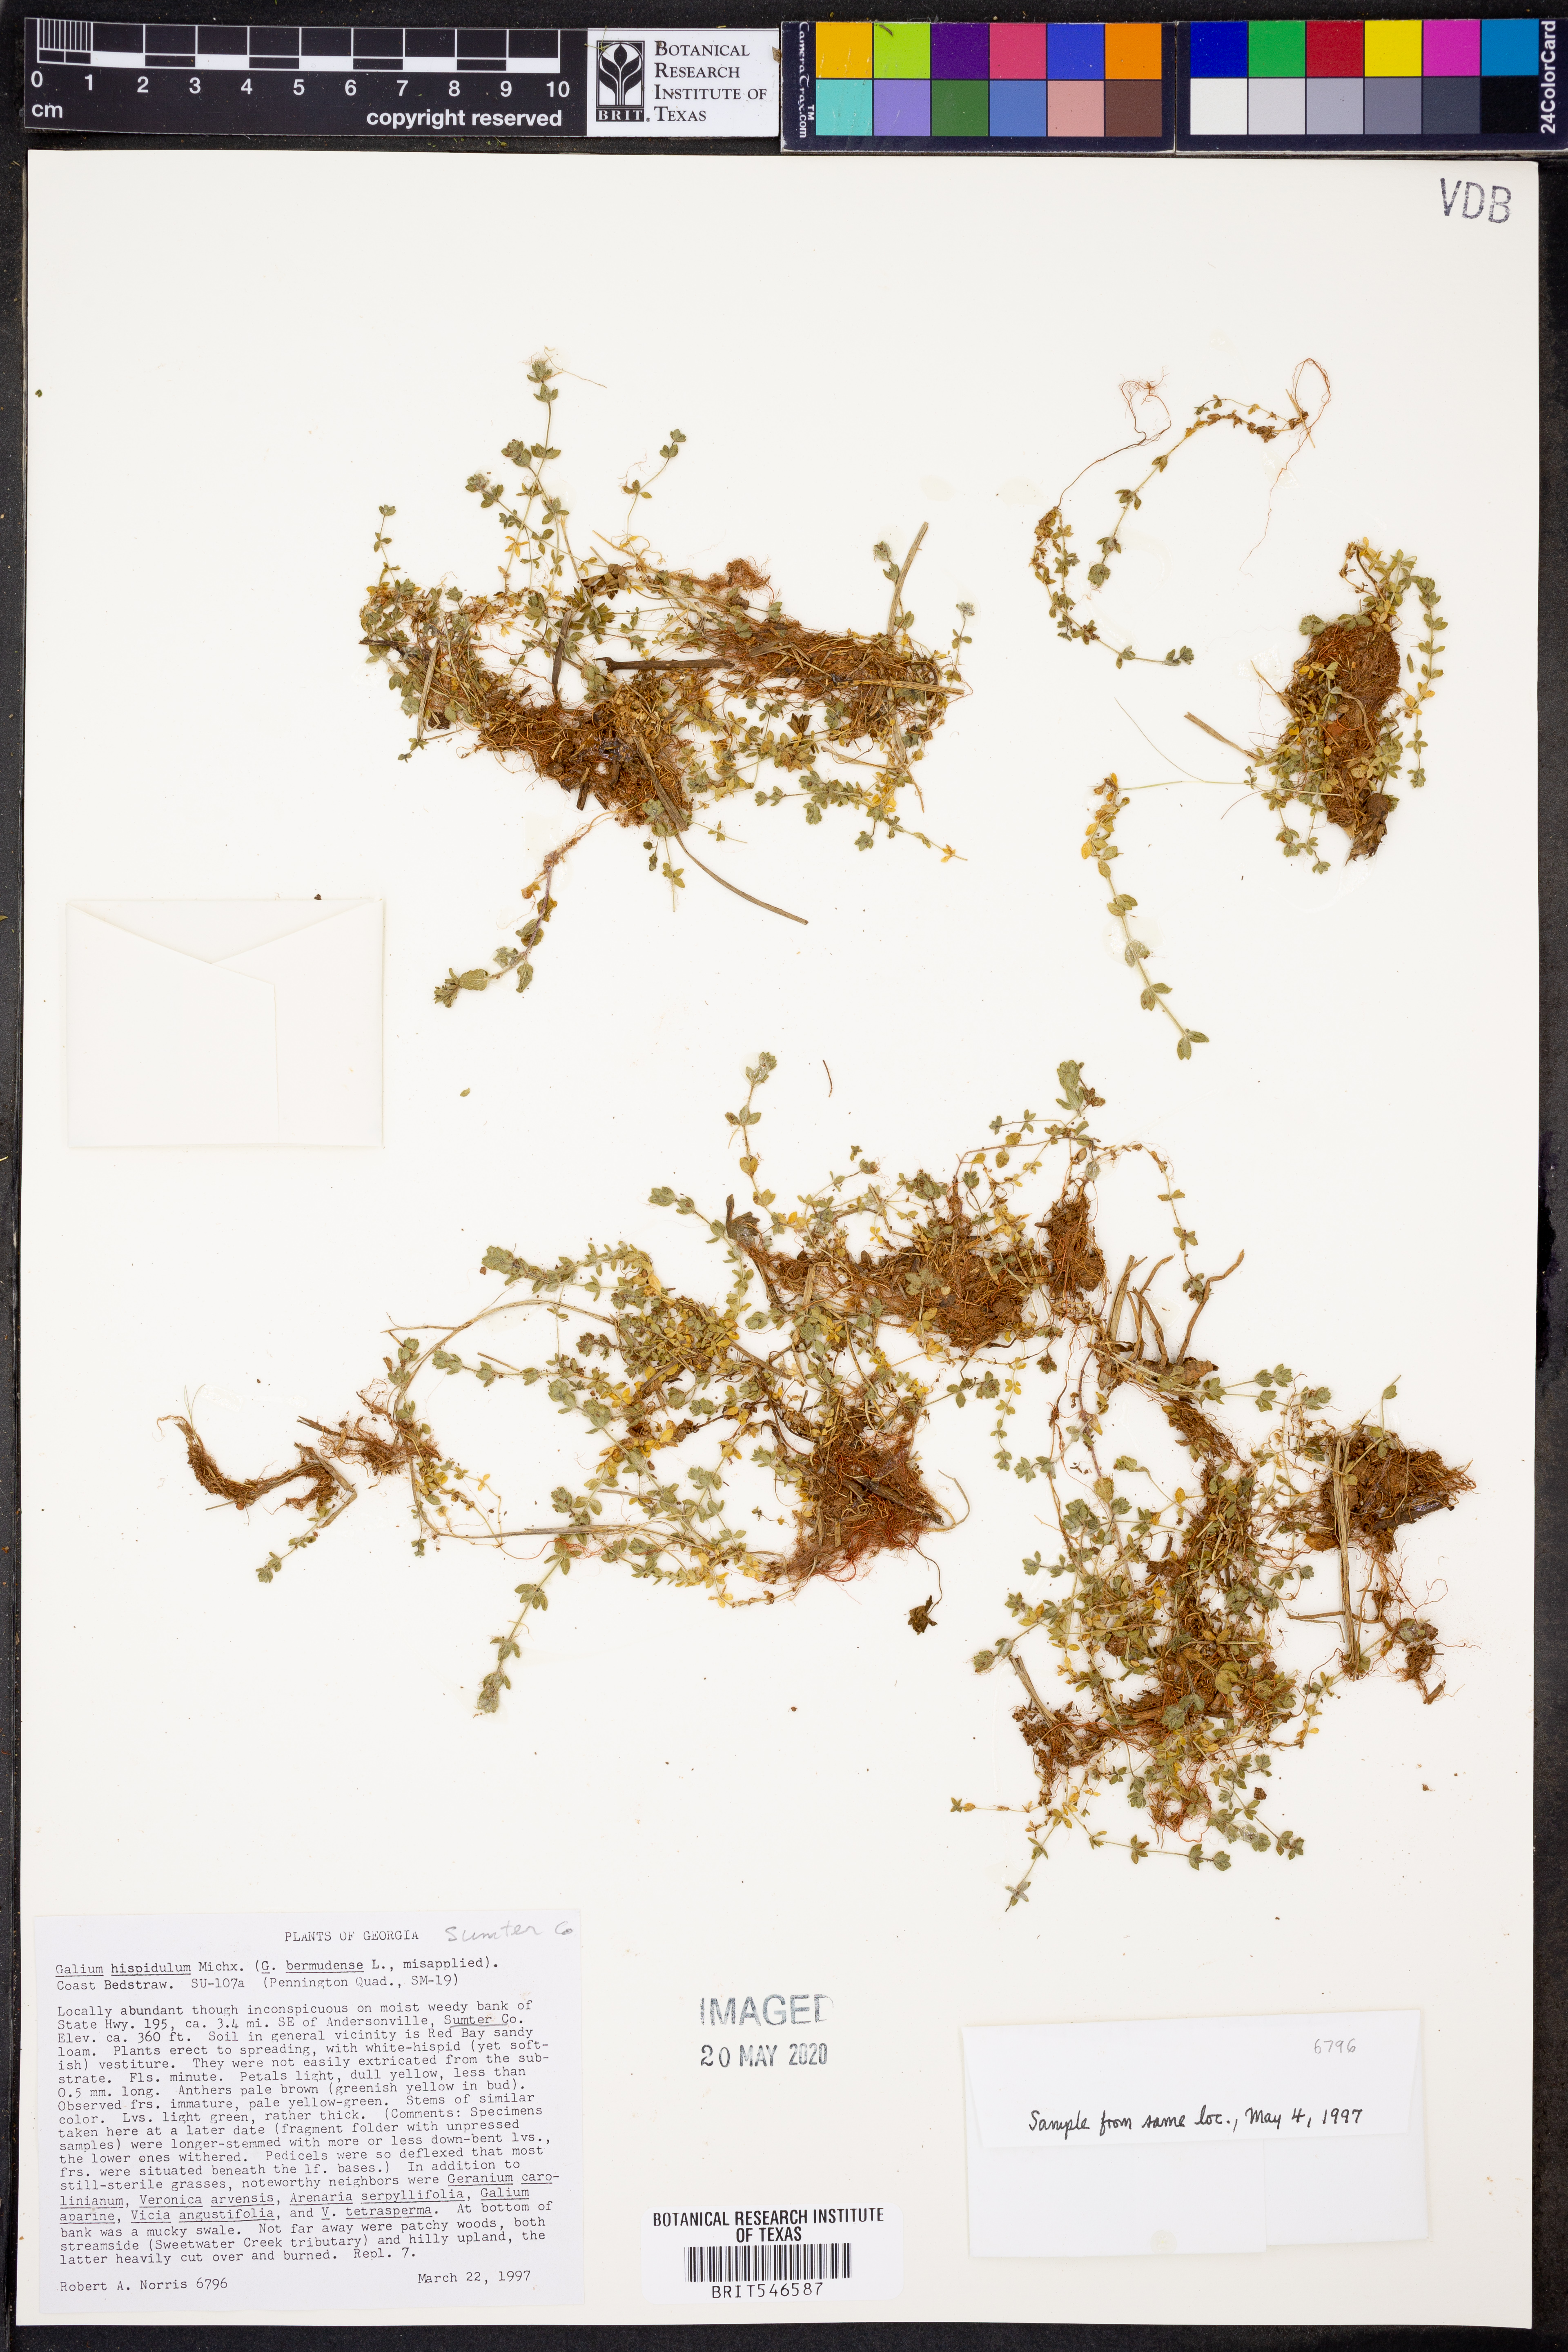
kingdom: Plantae
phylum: Tracheophyta
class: Magnoliopsida
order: Gentianales
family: Rubiaceae
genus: Galium
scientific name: Galium bermudense
